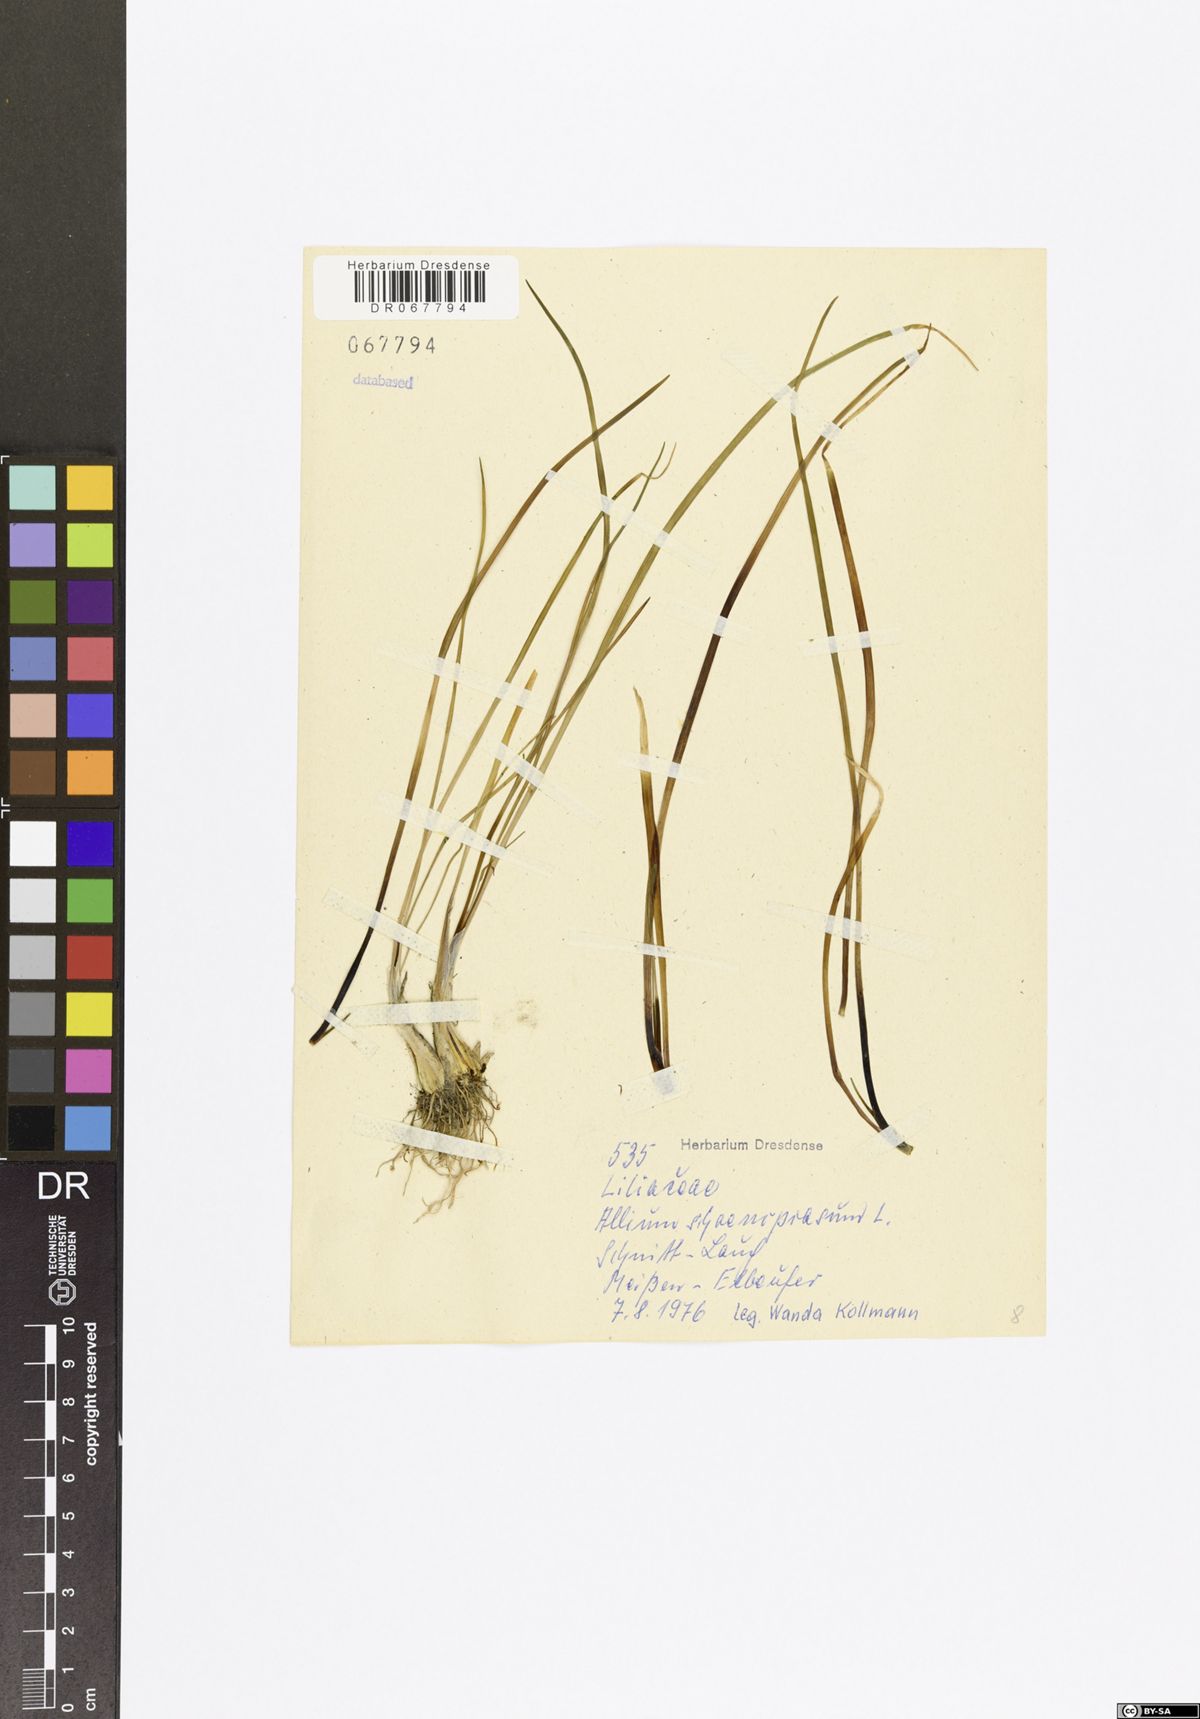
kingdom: Plantae
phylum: Tracheophyta
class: Liliopsida
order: Asparagales
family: Amaryllidaceae
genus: Allium
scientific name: Allium schoenoprasum
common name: Chives
